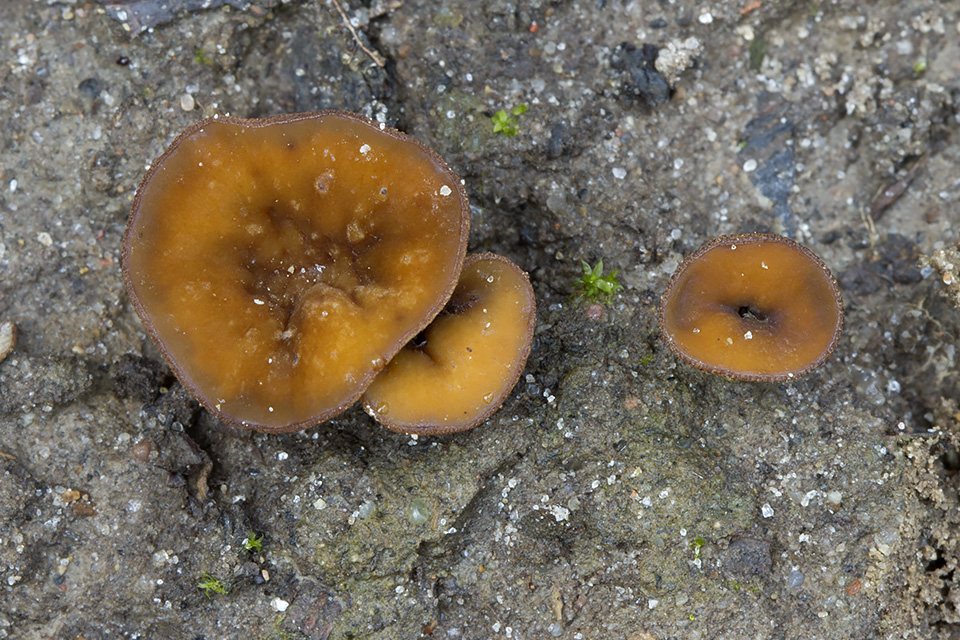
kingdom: Fungi
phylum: Ascomycota
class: Leotiomycetes
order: Helotiales
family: Rutstroemiaceae
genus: Rutstroemia
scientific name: Rutstroemia firma
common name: gren-brunskive
